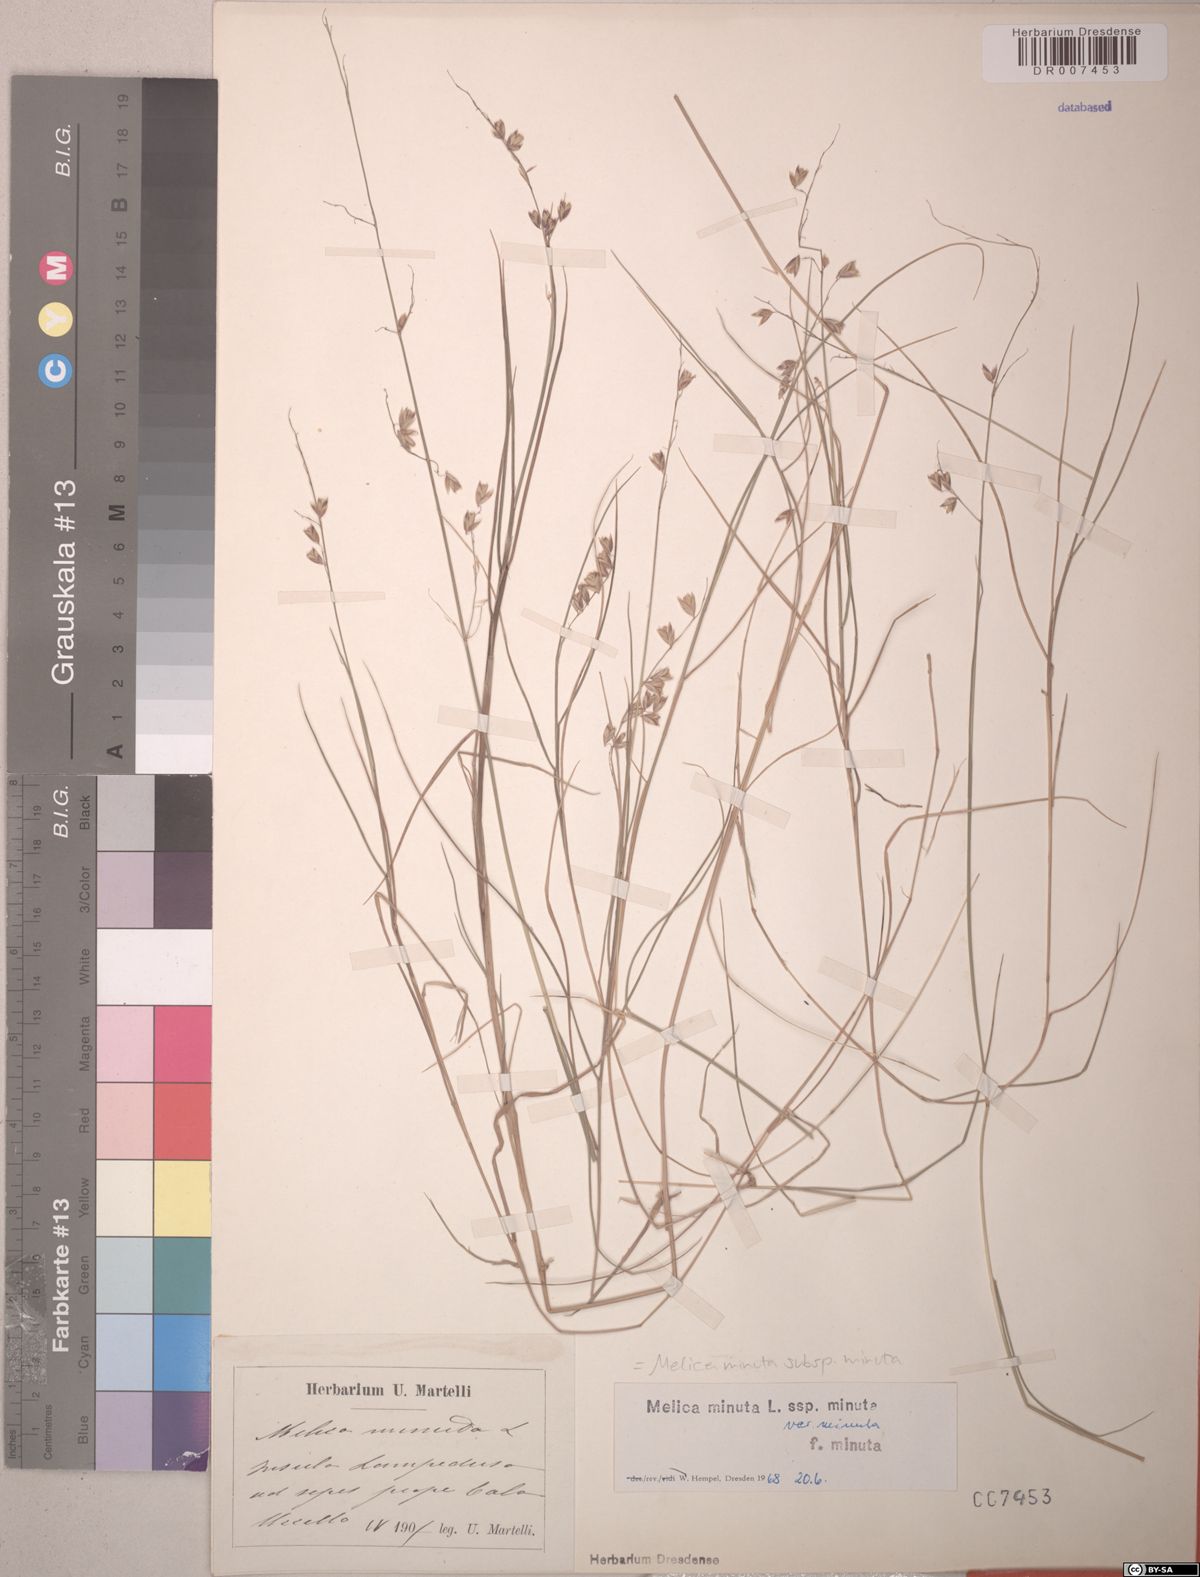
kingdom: Plantae
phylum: Tracheophyta
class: Liliopsida
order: Poales
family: Poaceae
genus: Melica
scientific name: Melica minuta
